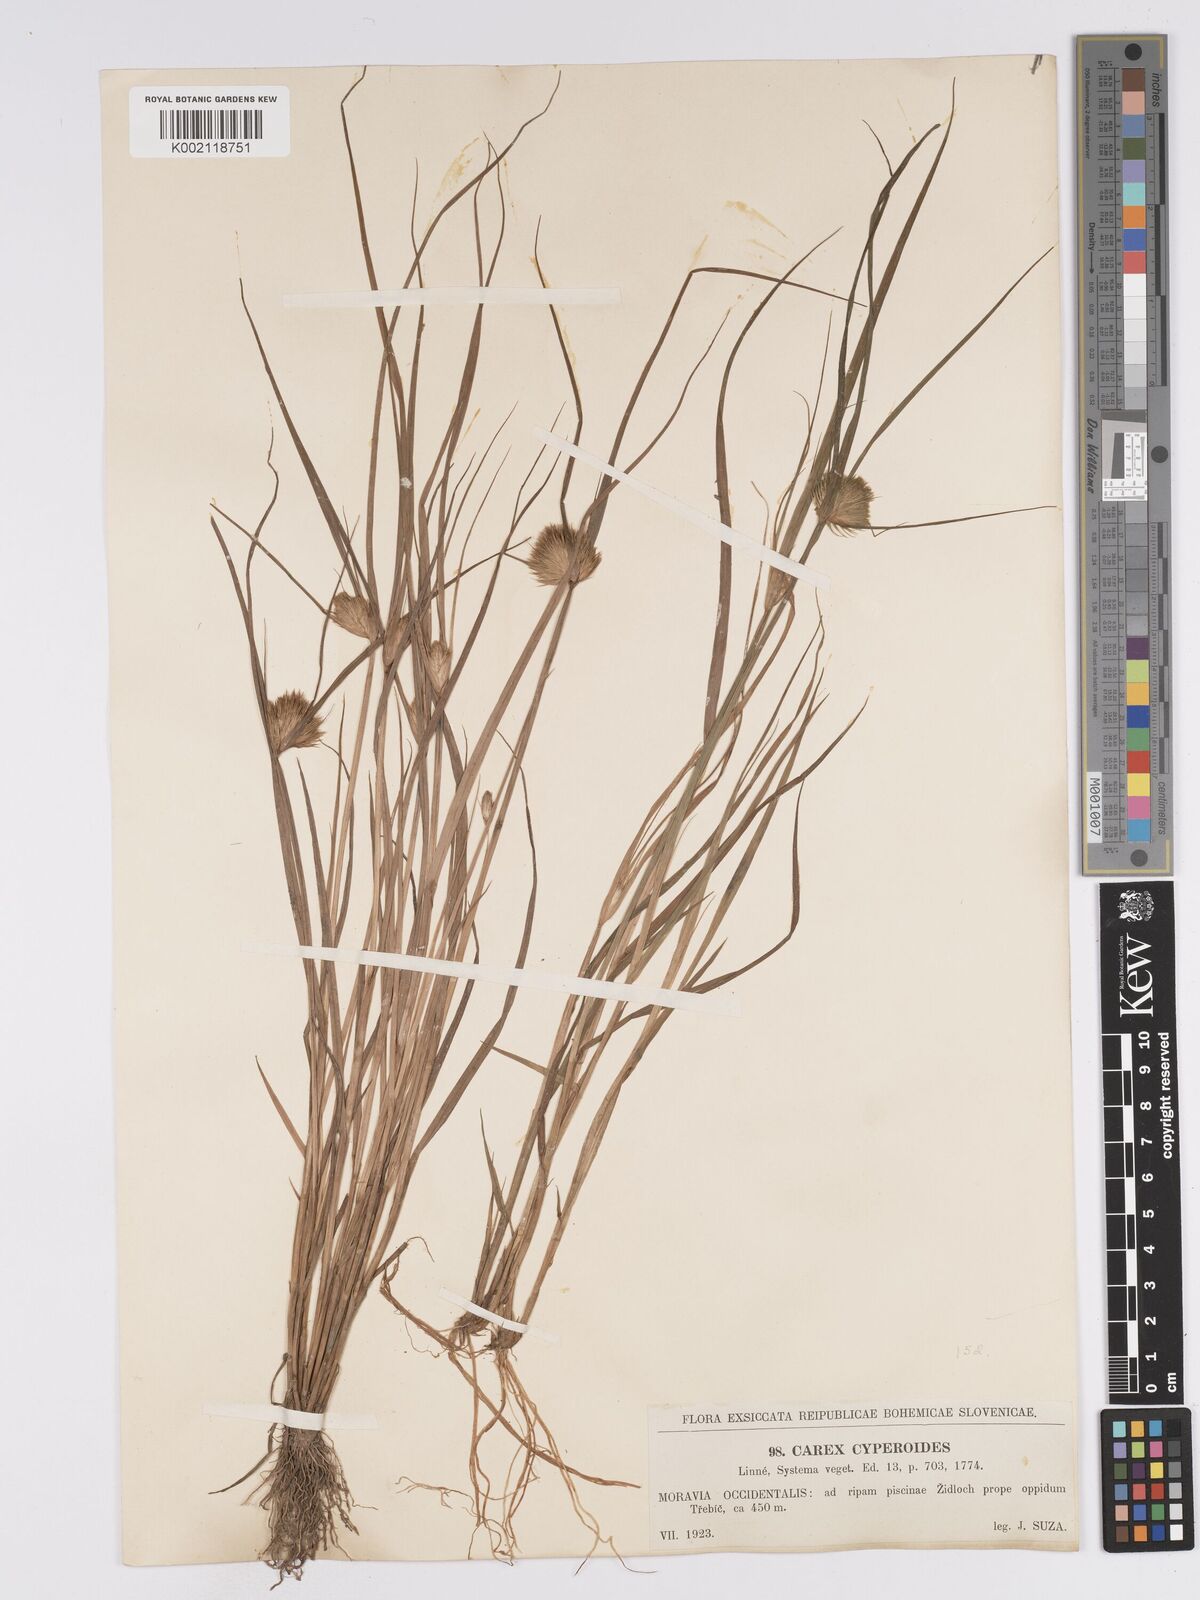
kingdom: Plantae
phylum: Tracheophyta
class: Liliopsida
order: Poales
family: Cyperaceae
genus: Carex
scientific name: Carex bohemica
